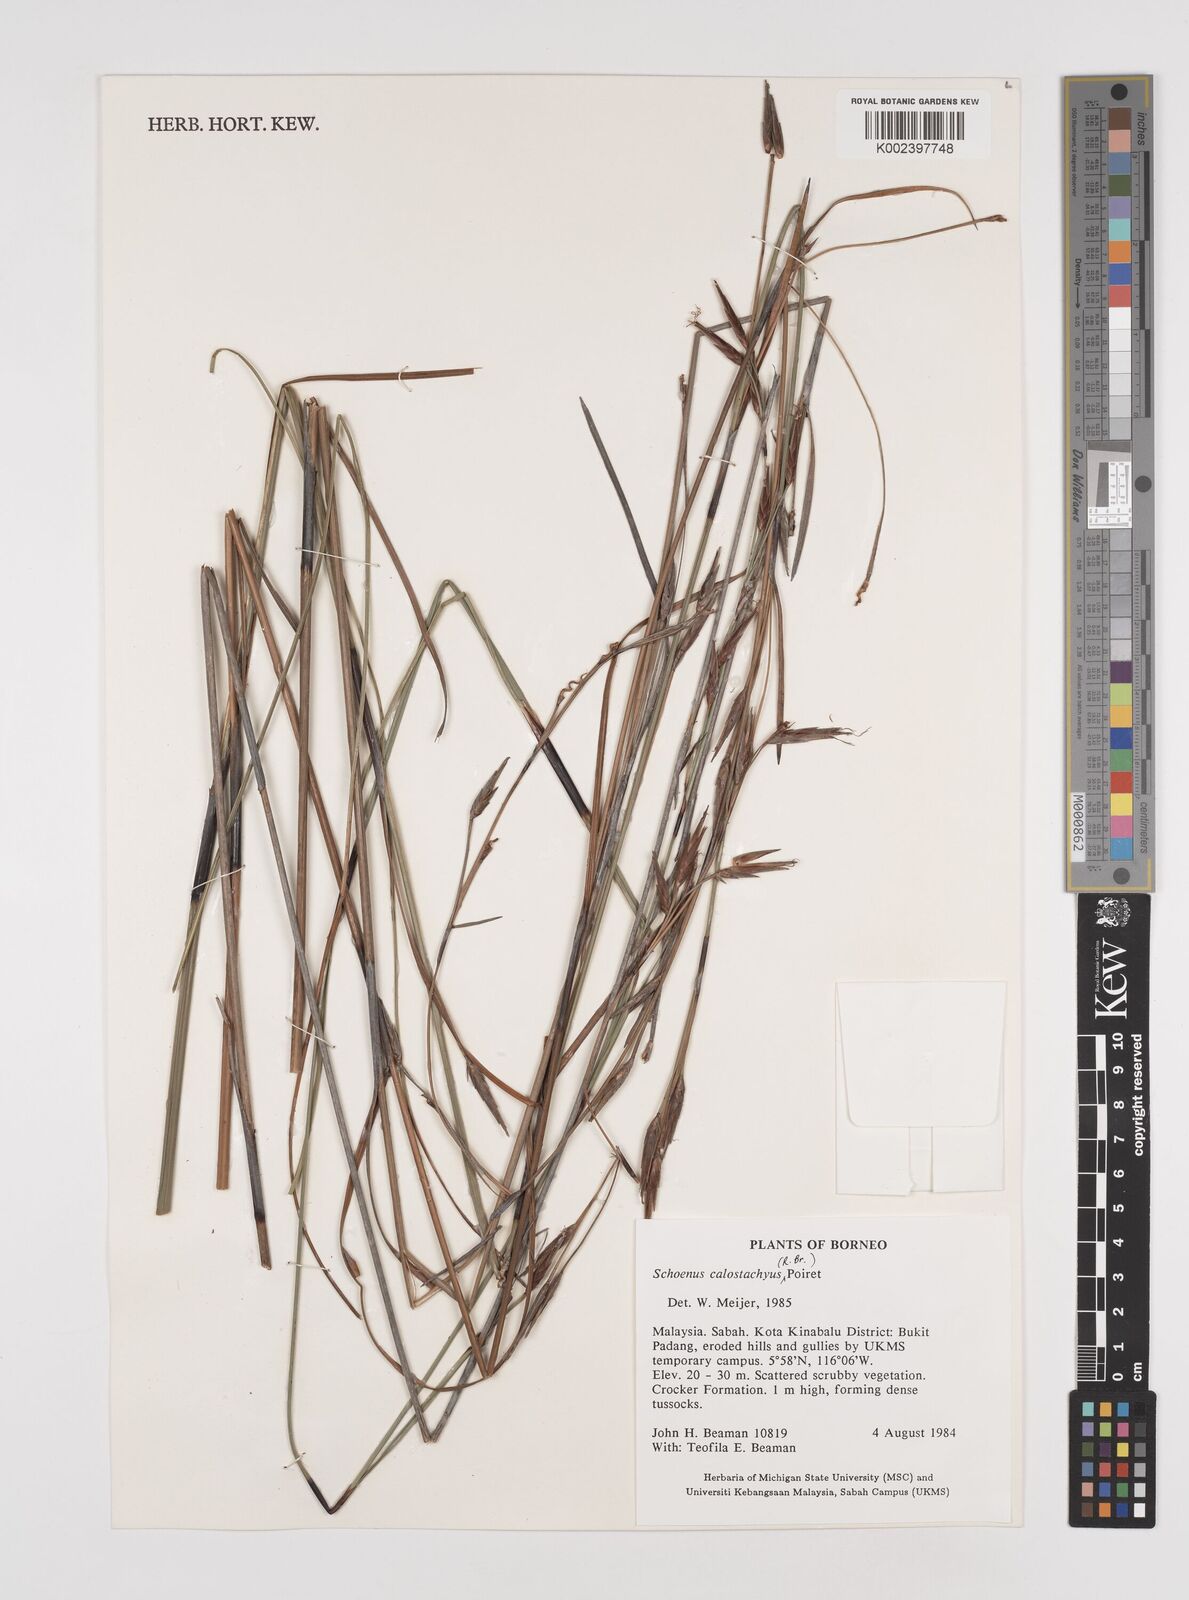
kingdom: Plantae
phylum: Tracheophyta
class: Liliopsida
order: Poales
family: Cyperaceae
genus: Schoenus
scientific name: Schoenus calostachyus
